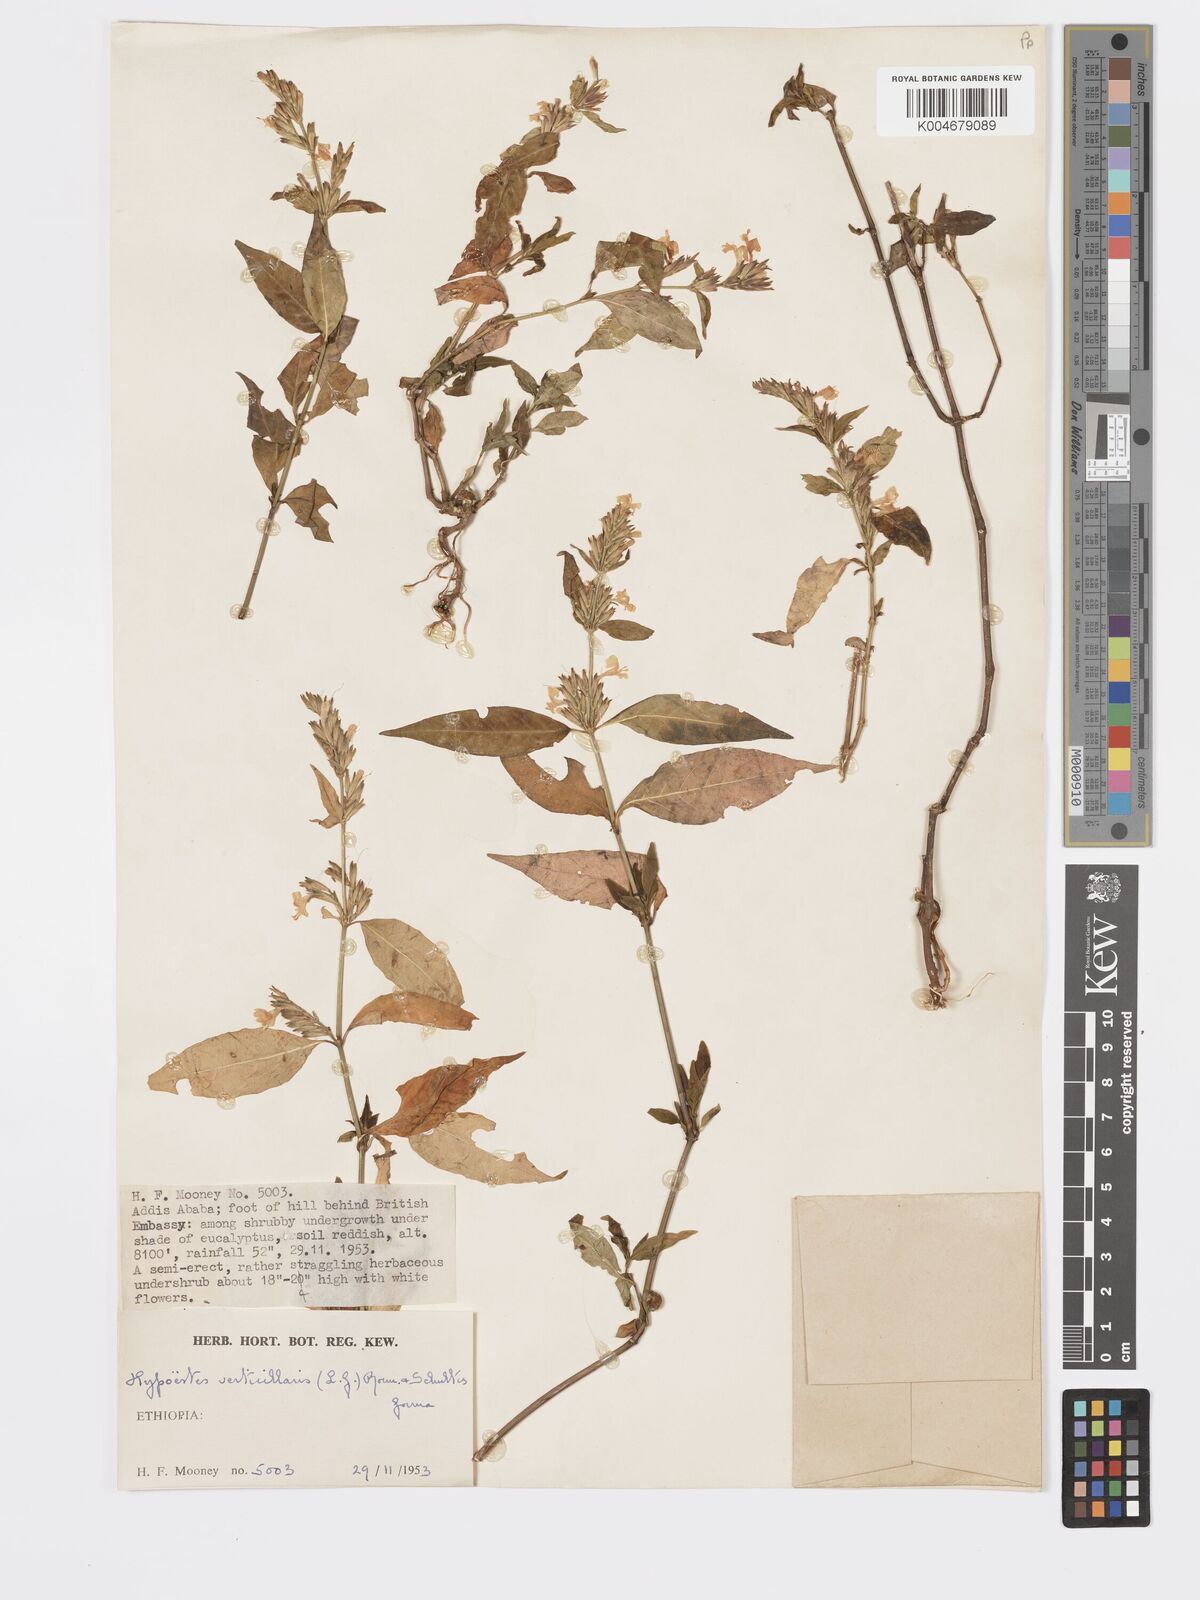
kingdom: Plantae
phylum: Tracheophyta
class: Magnoliopsida
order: Lamiales
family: Acanthaceae
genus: Hypoestes
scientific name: Hypoestes forskaolii
